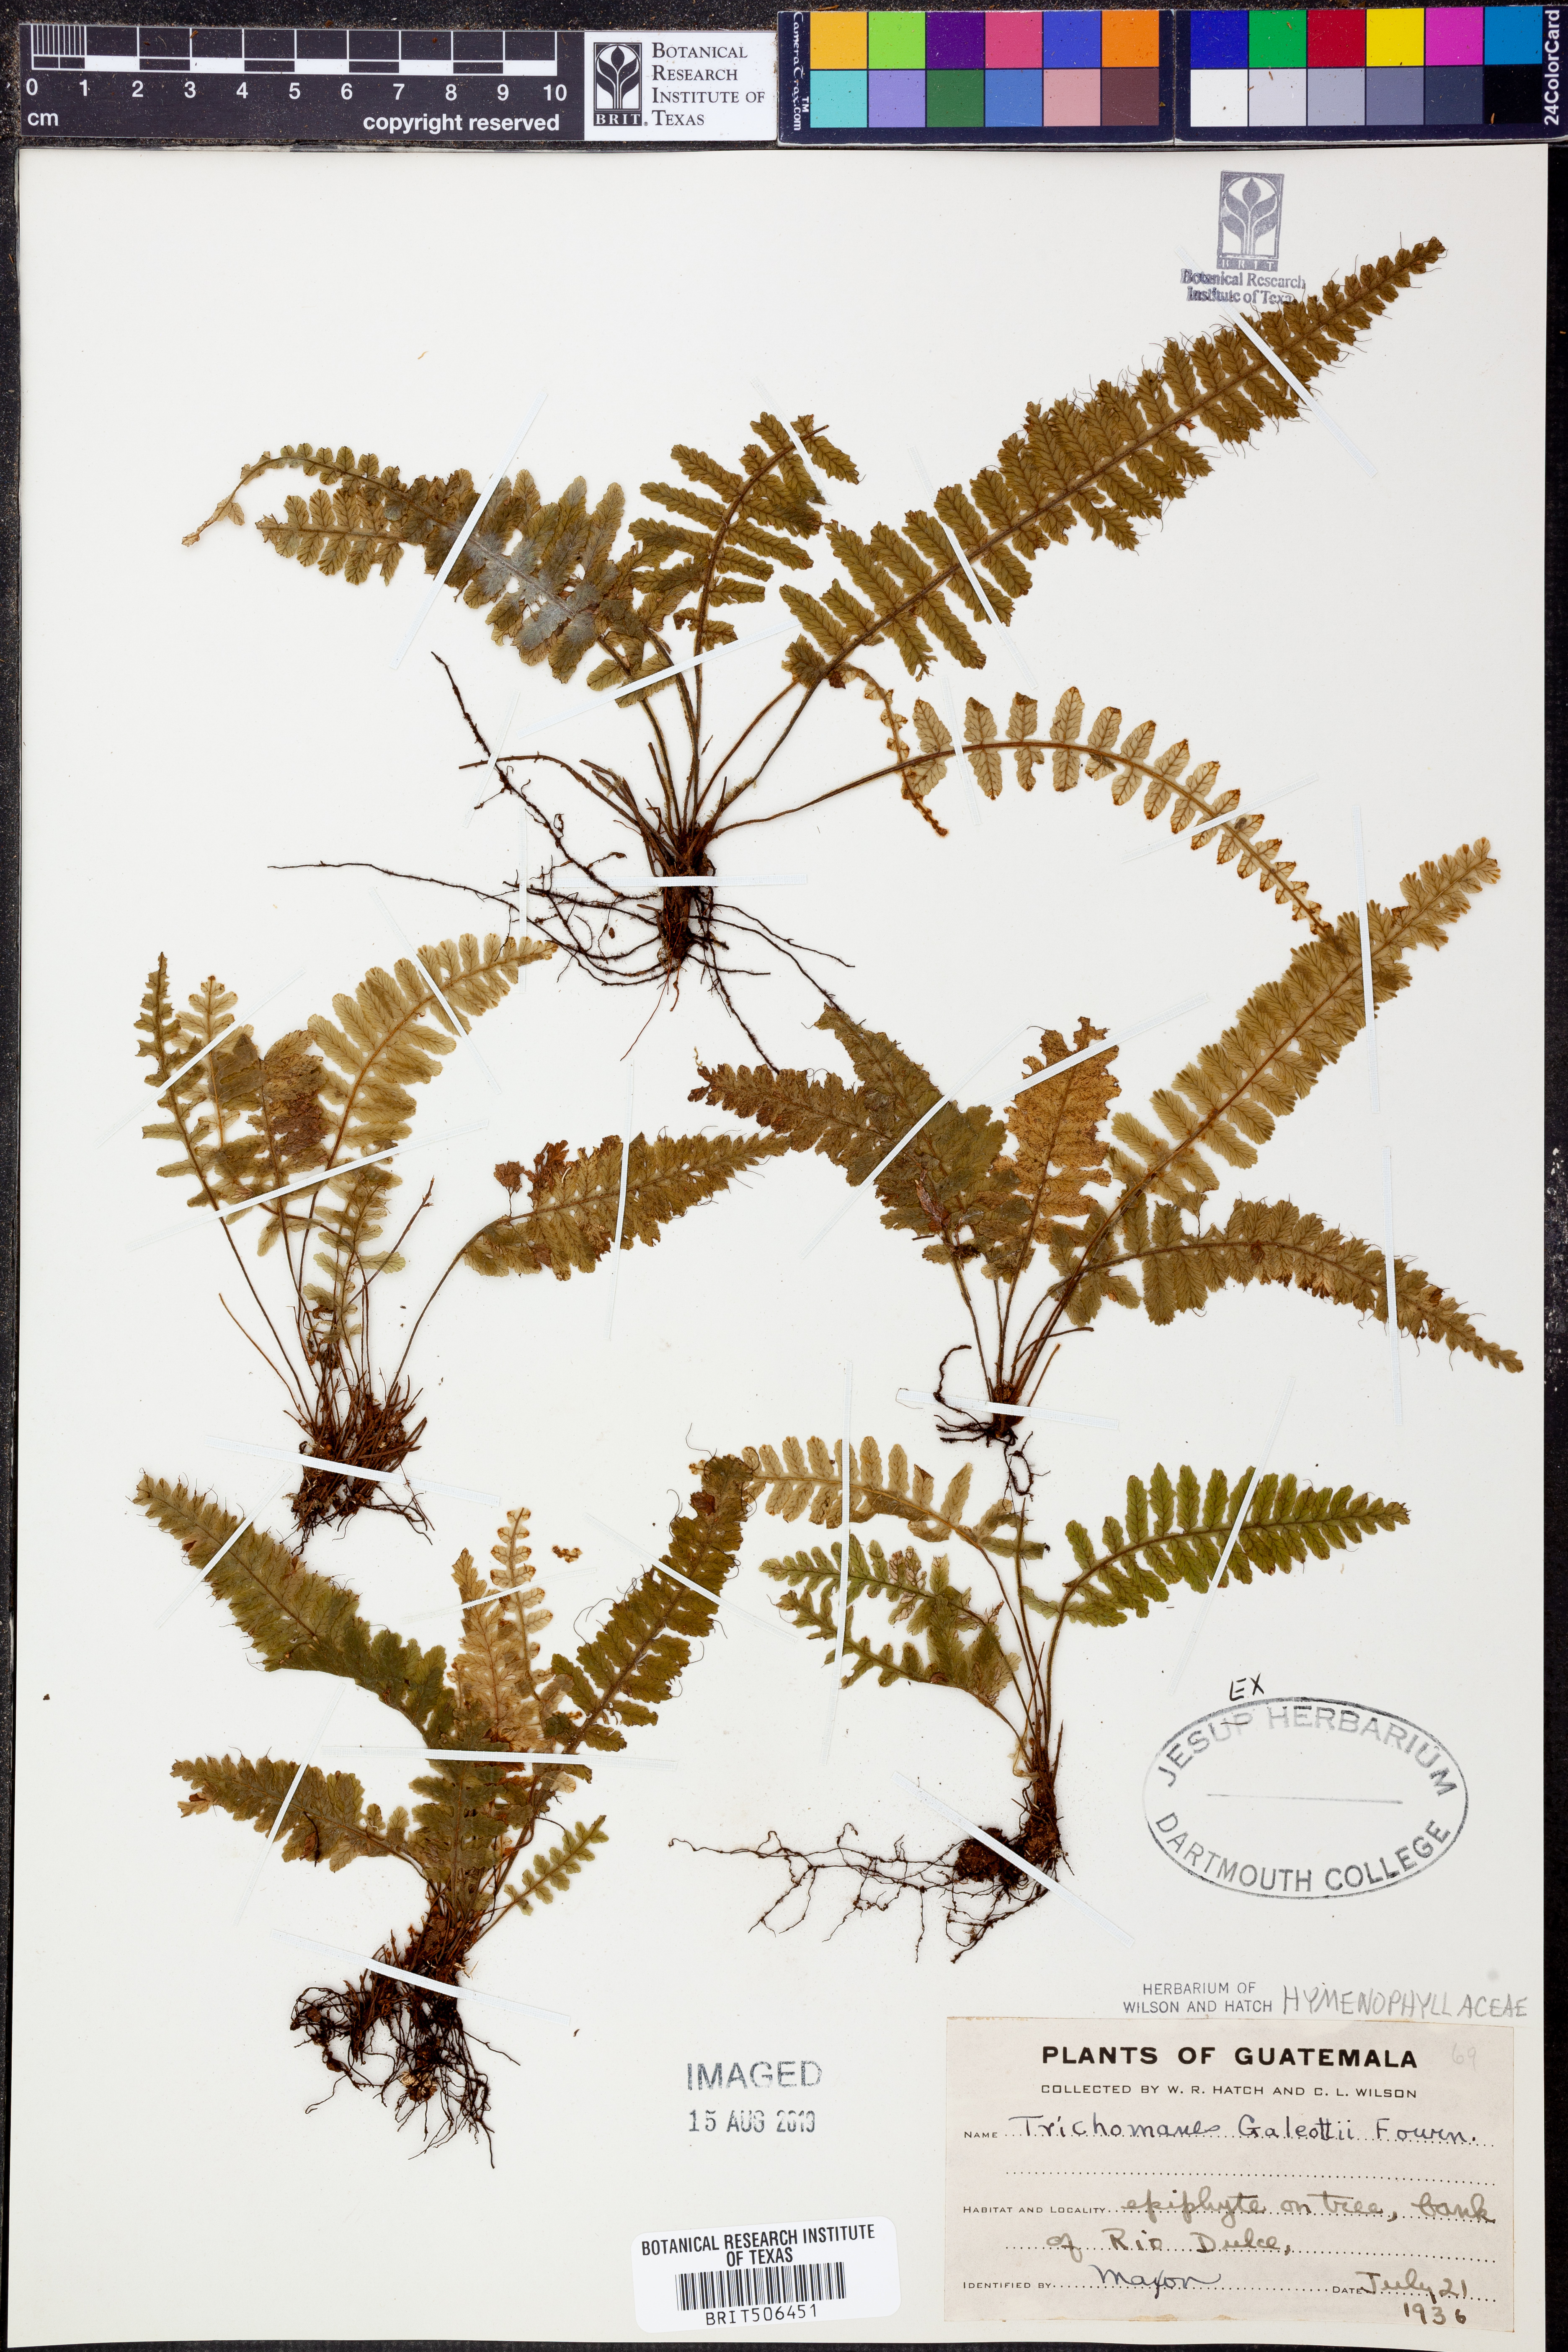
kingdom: Plantae
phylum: Tracheophyta
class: Polypodiopsida
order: Hymenophyllales
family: Hymenophyllaceae
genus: Trichomanes
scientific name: Trichomanes galeottii
